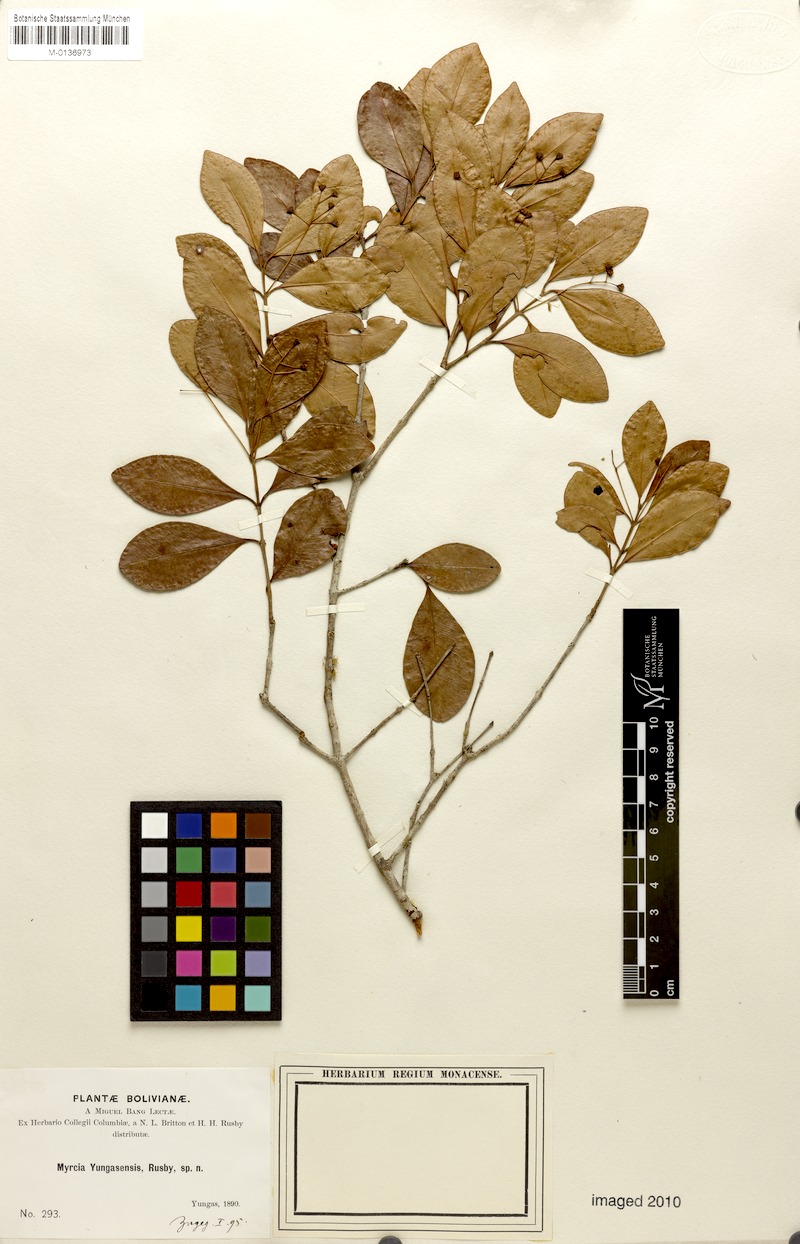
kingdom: Plantae
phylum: Tracheophyta
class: Magnoliopsida
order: Myrtales
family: Myrtaceae
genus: Myrcia
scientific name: Myrcia guianensis
